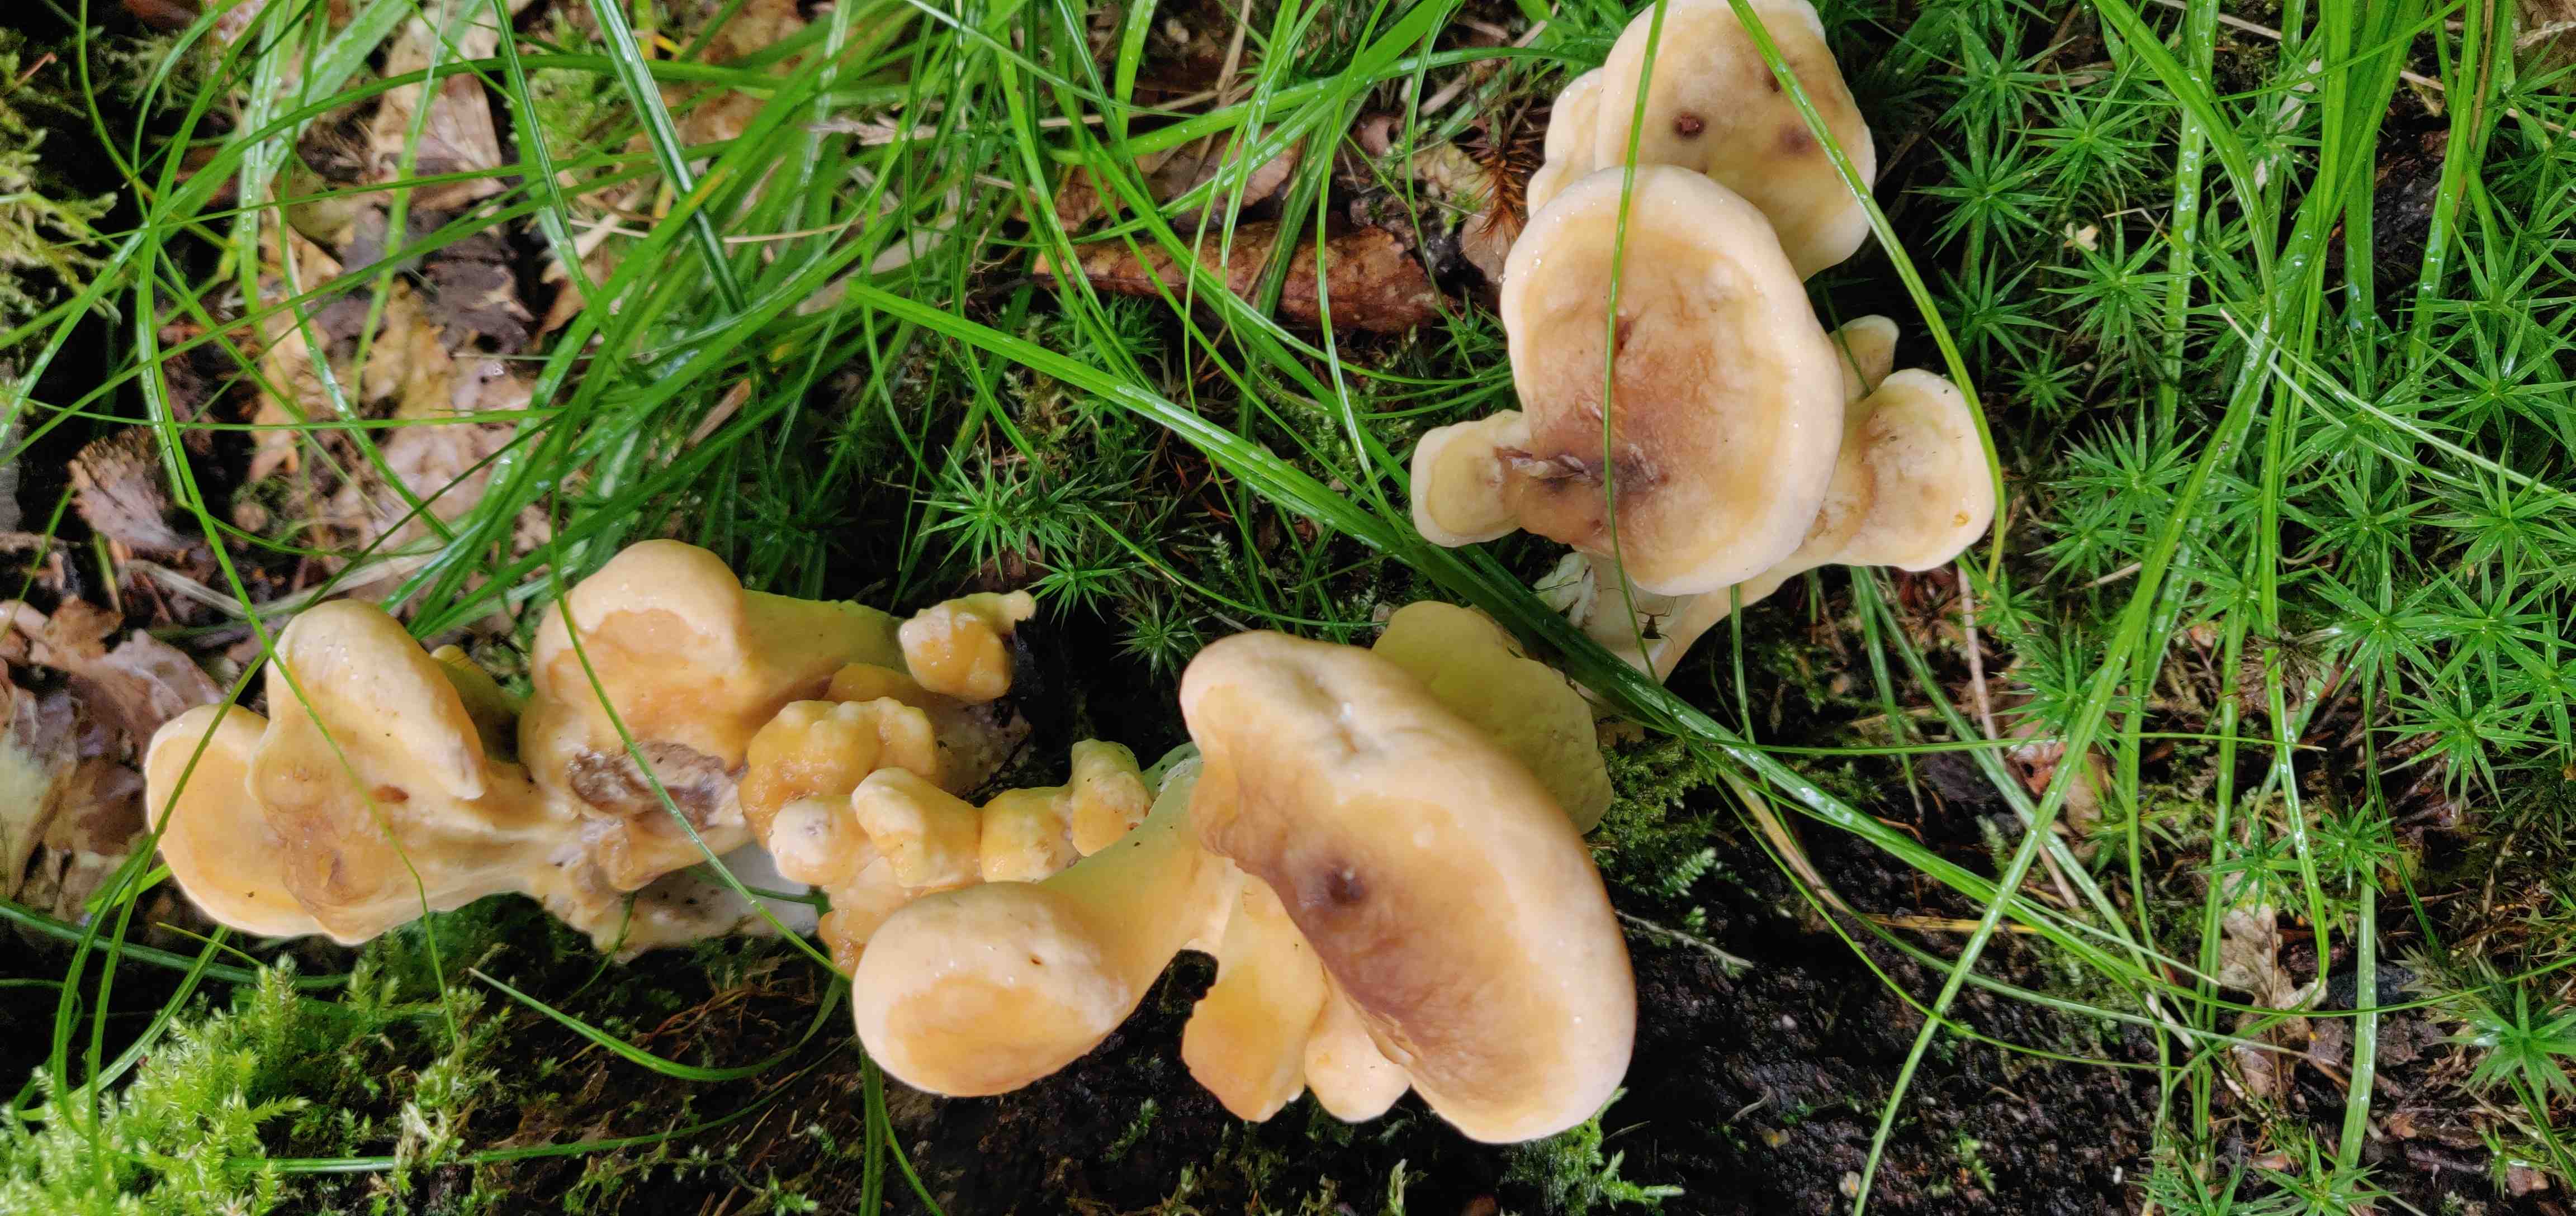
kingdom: Fungi
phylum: Basidiomycota
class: Agaricomycetes
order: Polyporales
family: Meripilaceae
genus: Meripilus
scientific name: Meripilus giganteus
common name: kæmpeporesvamp
